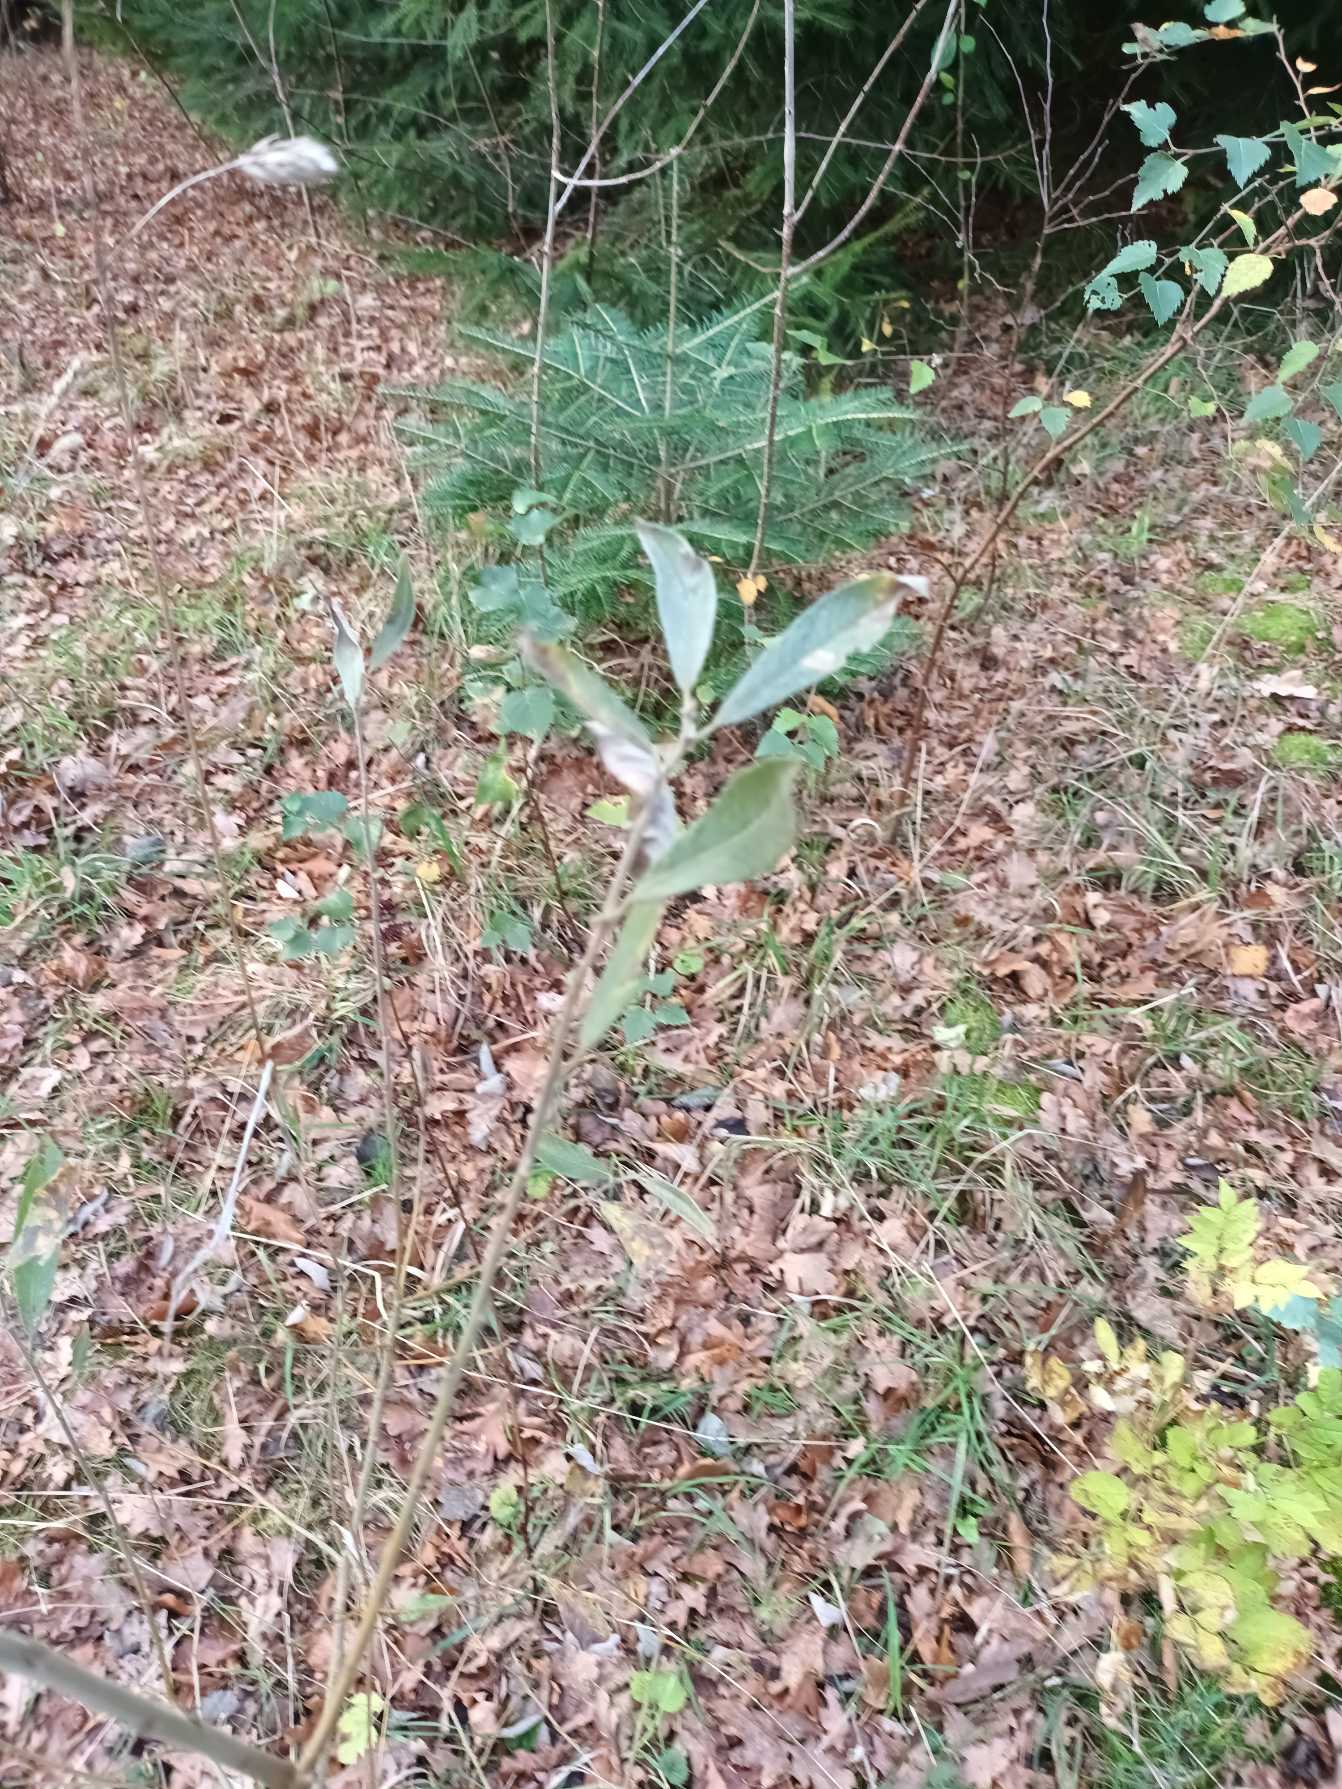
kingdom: Plantae
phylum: Tracheophyta
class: Magnoliopsida
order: Malpighiales
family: Salicaceae
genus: Salix
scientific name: Salix cinerea
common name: Grå-pil
